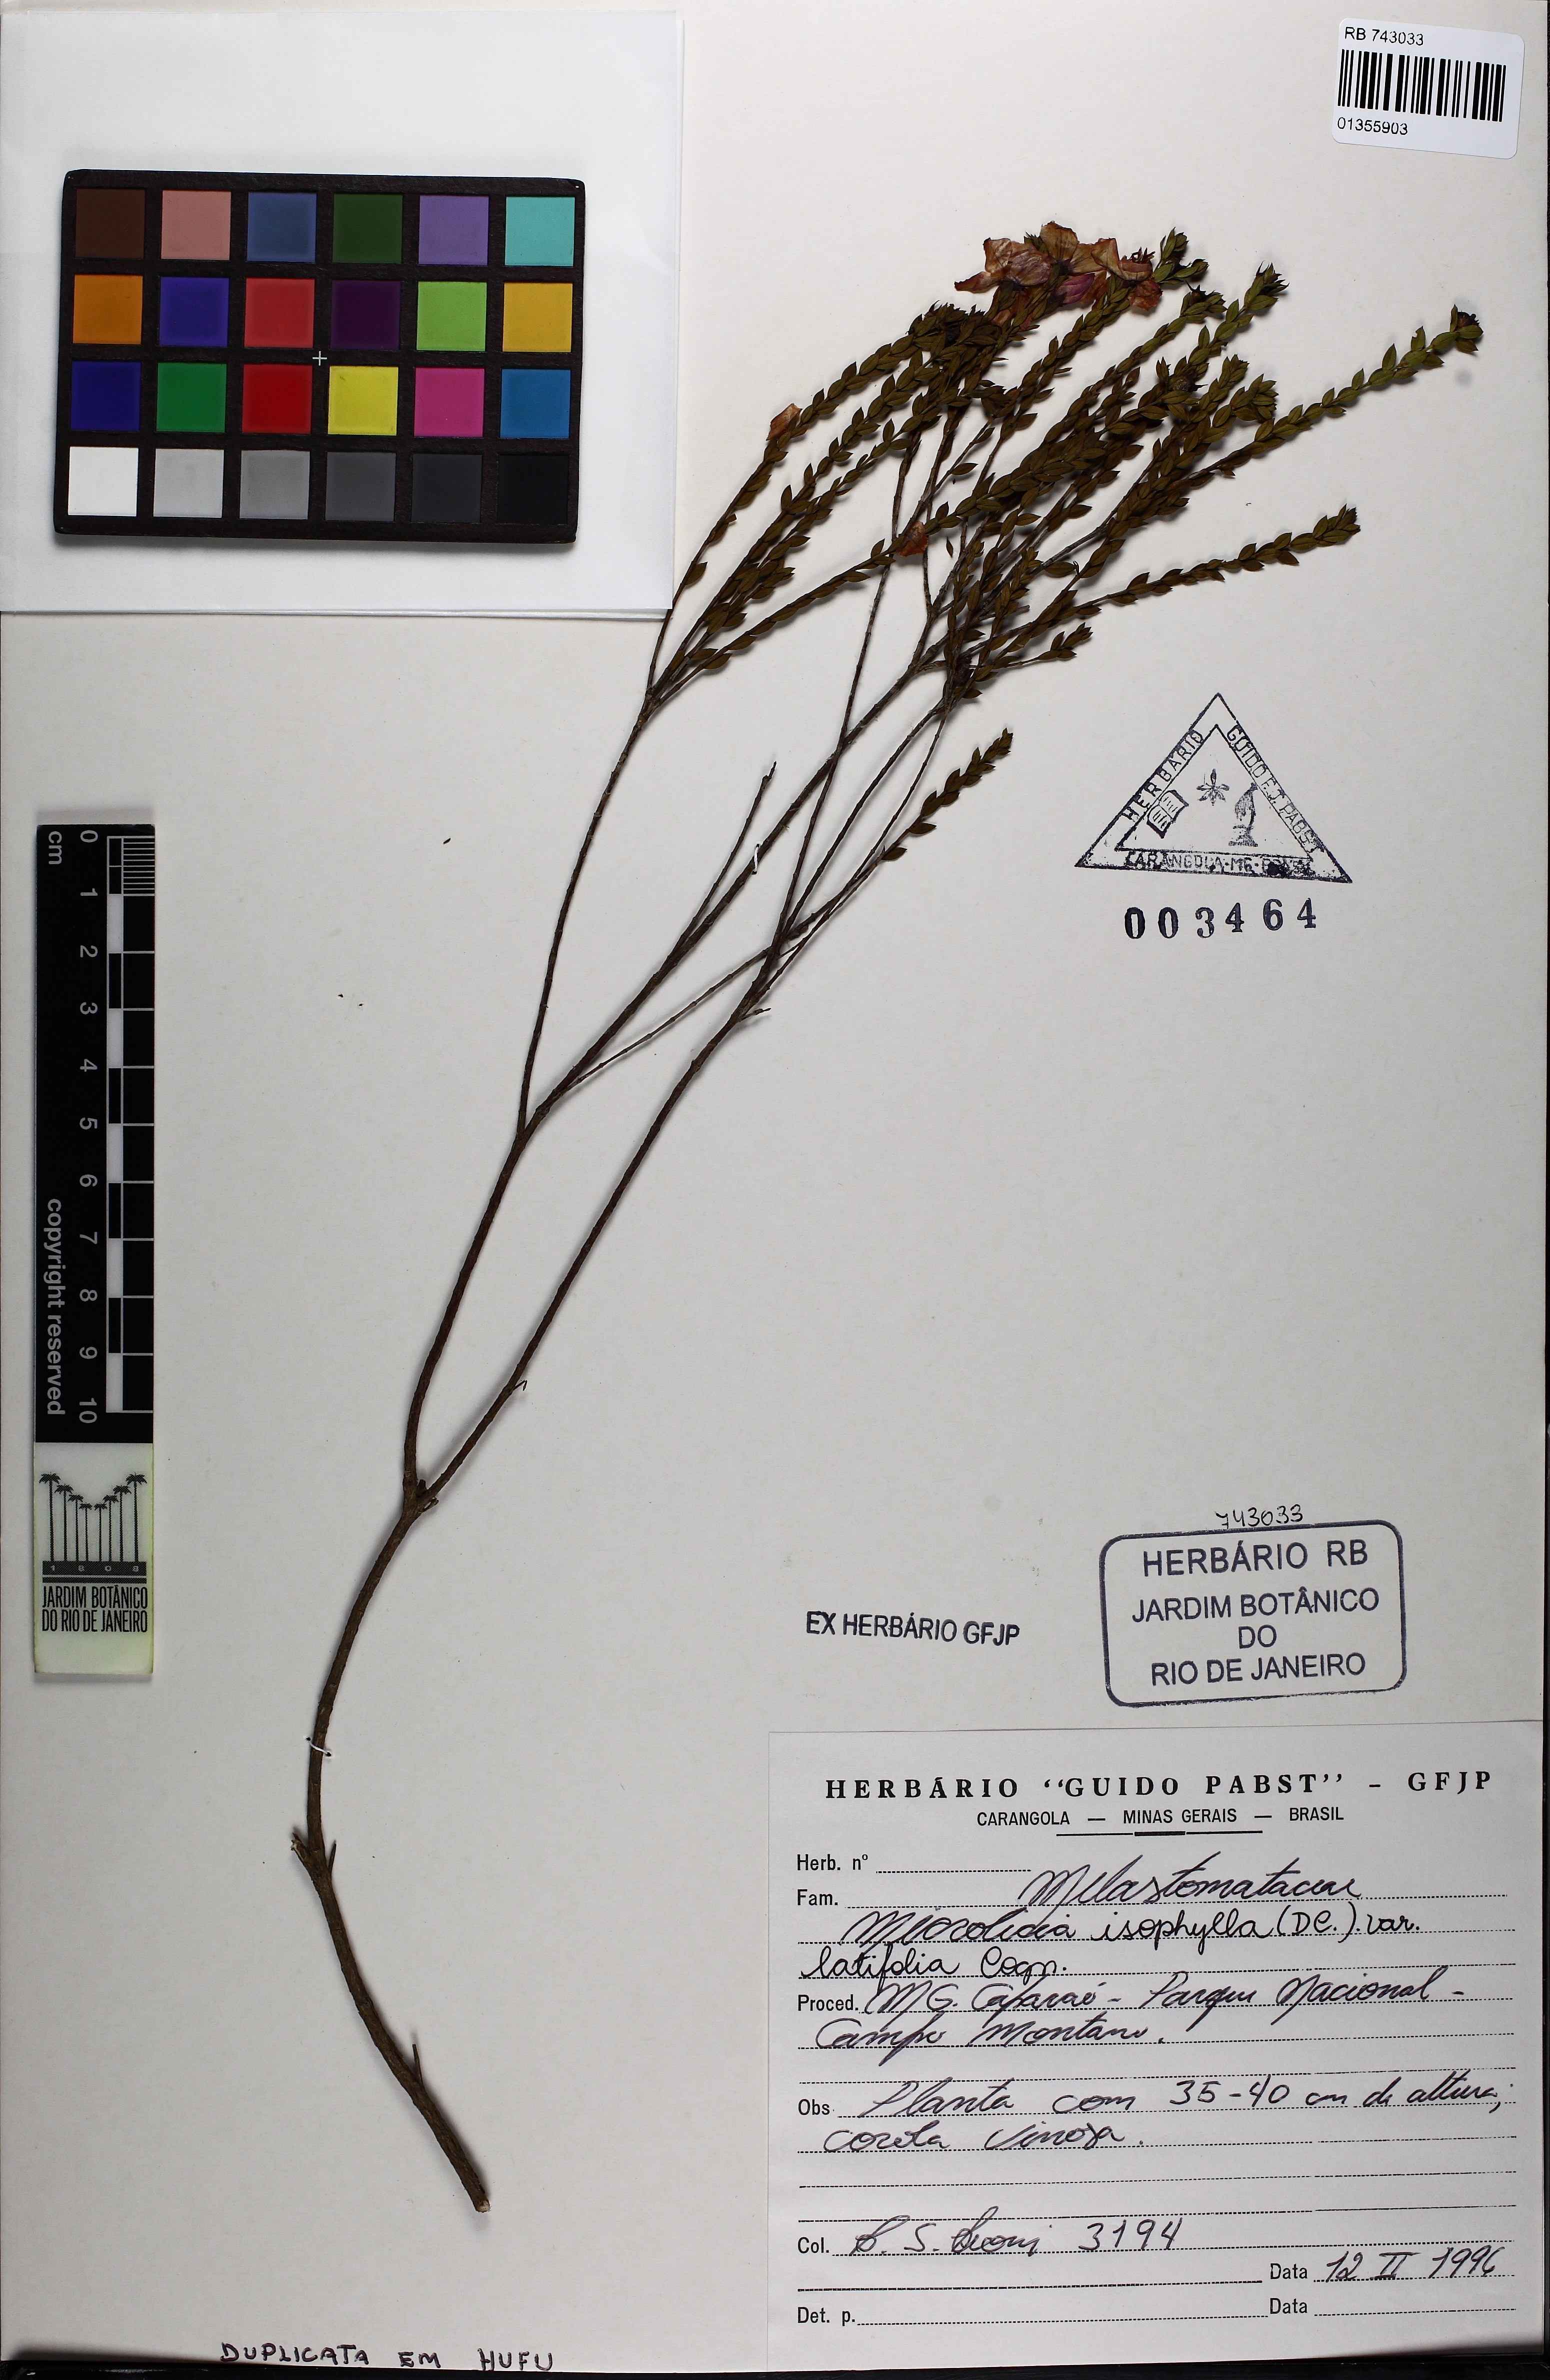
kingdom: Plantae
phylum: Tracheophyta
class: Magnoliopsida
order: Myrtales
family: Melastomataceae
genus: Microlicia
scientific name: Microlicia isophylla
